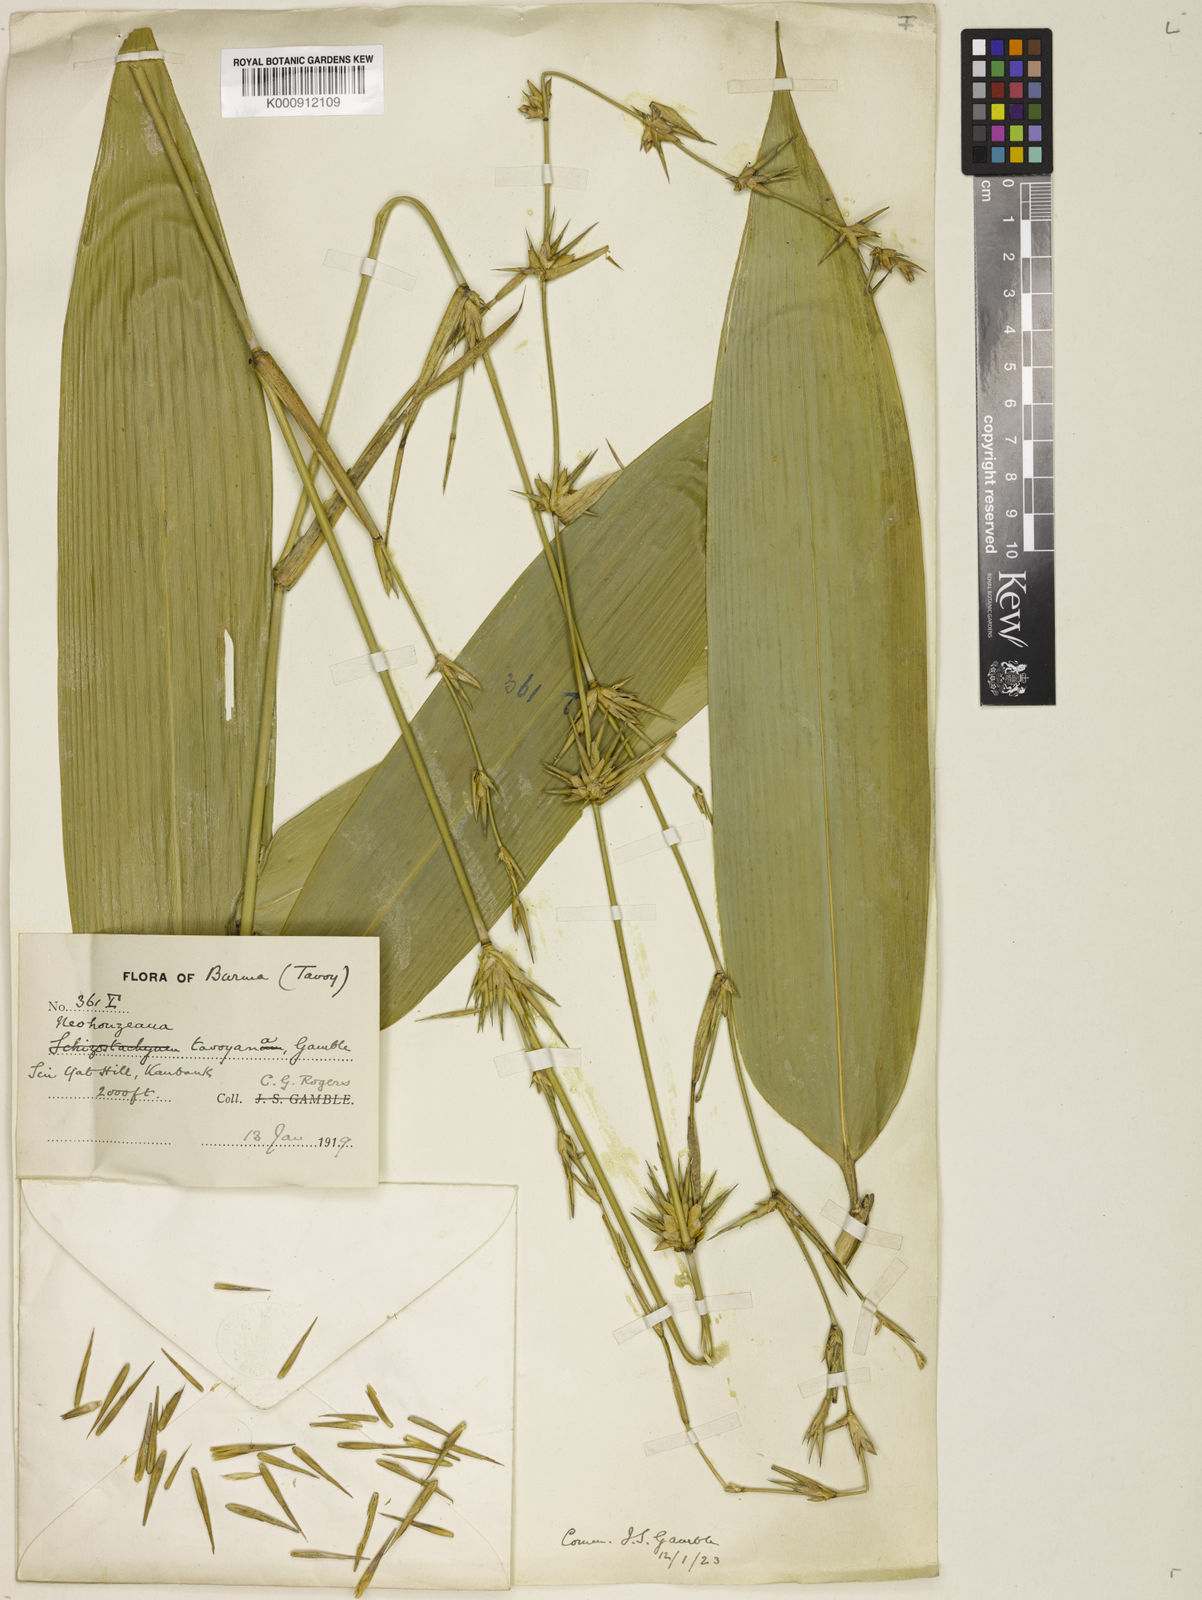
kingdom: Plantae
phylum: Tracheophyta
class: Liliopsida
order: Poales
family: Poaceae
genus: Schizostachyum
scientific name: Schizostachyum tavoyanum
